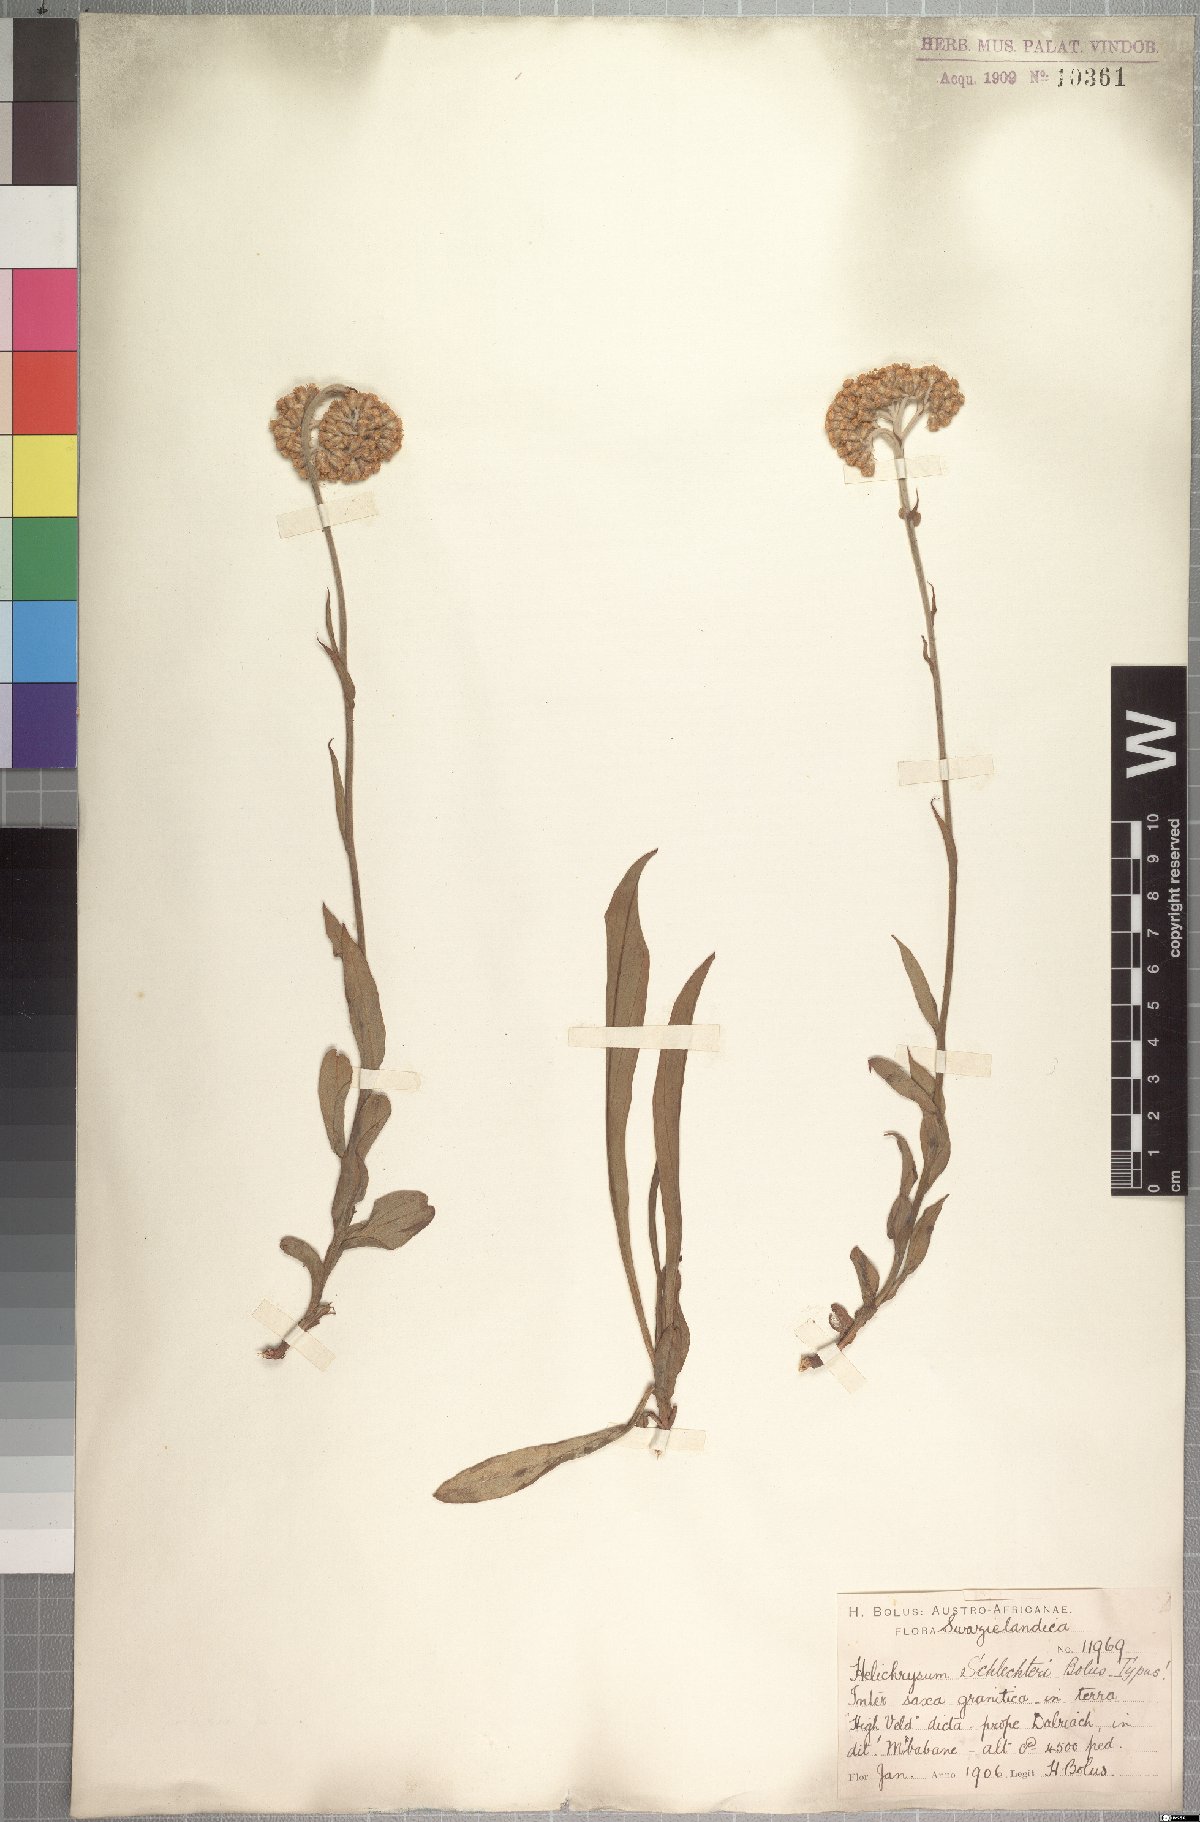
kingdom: Plantae
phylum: Tracheophyta
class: Magnoliopsida
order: Asterales
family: Asteraceae
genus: Helichrysum
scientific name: Helichrysum acutatum
